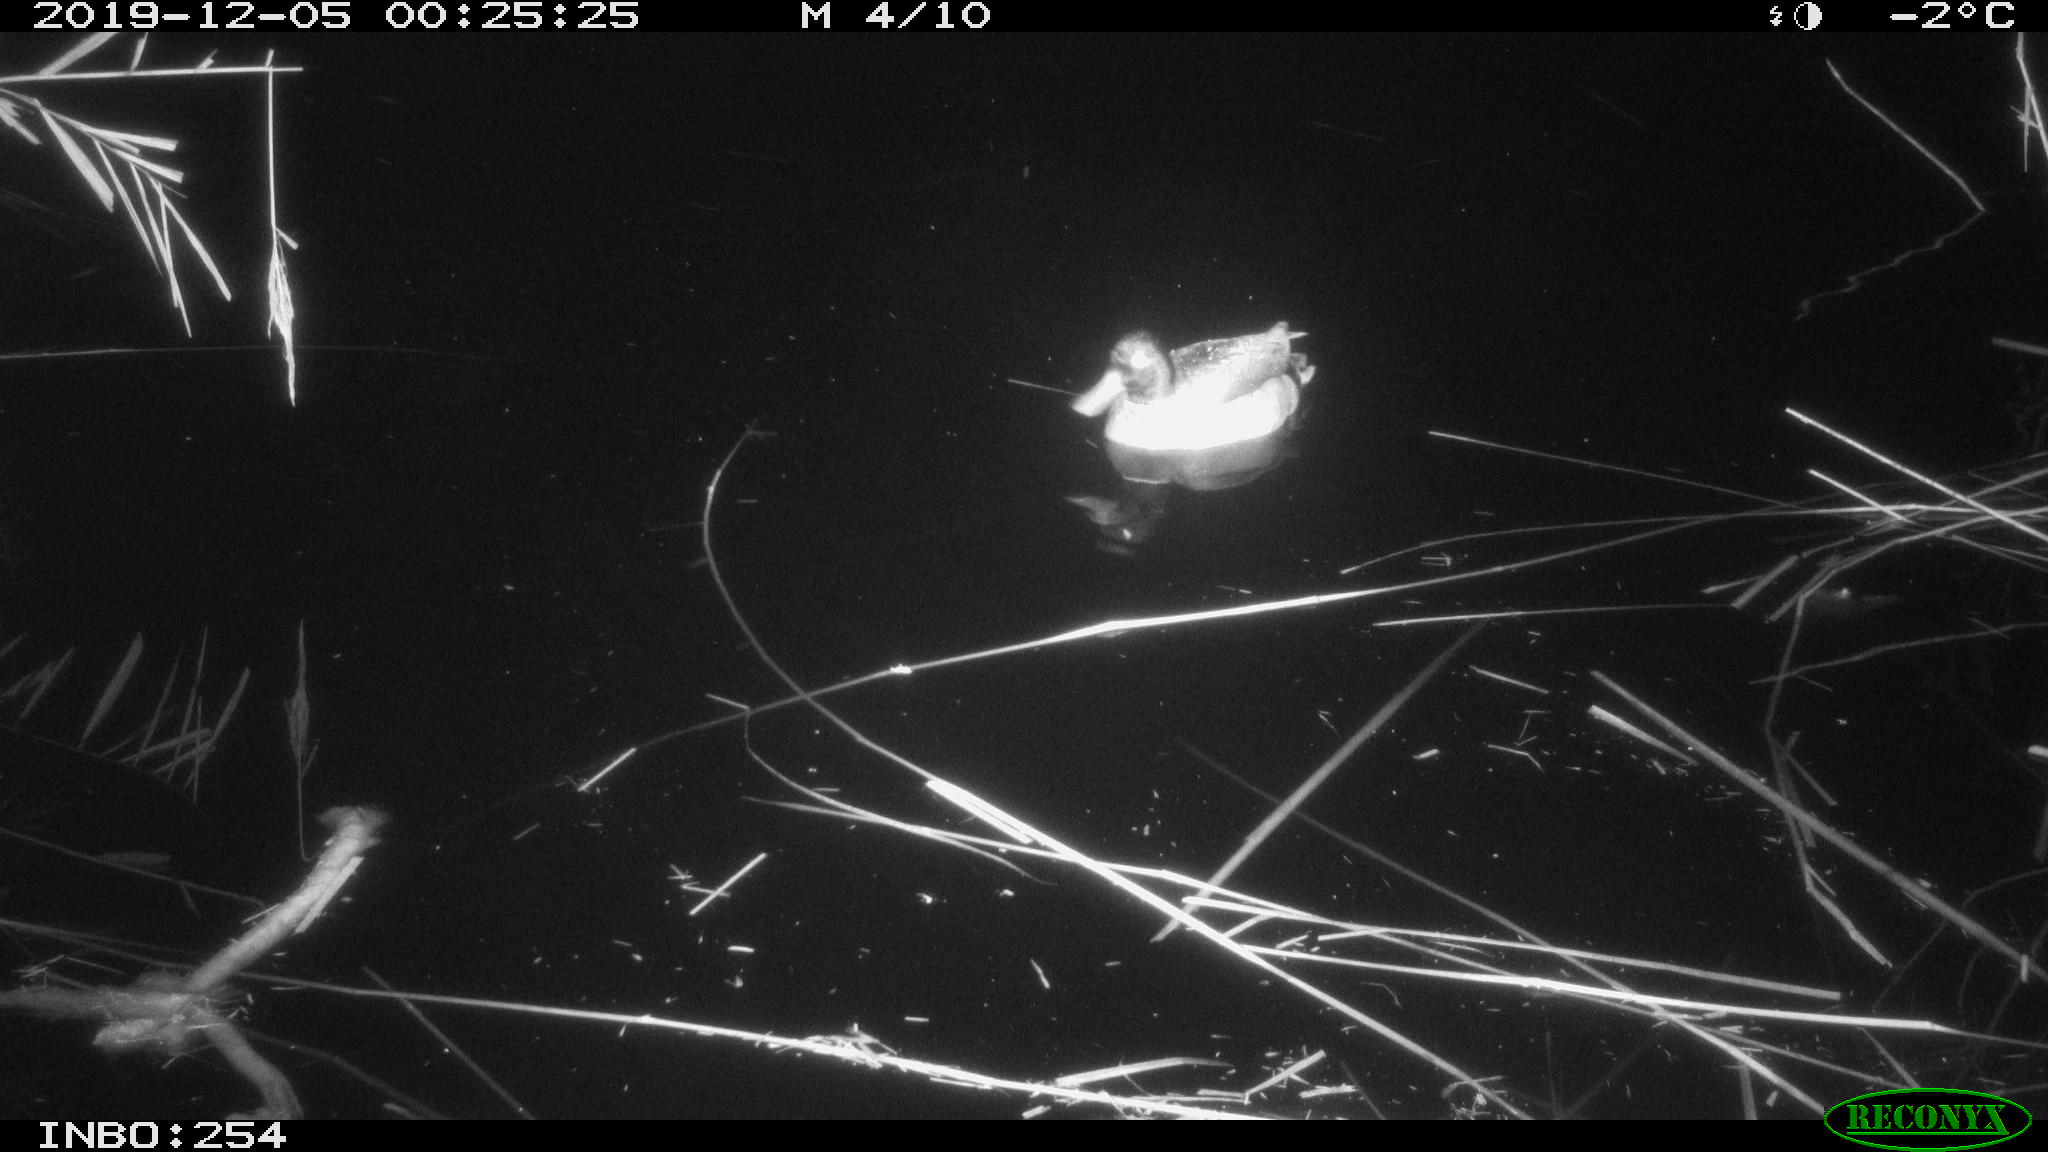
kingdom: Animalia
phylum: Chordata
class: Aves
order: Anseriformes
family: Anatidae
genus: Anas
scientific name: Anas platyrhynchos
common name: Mallard
